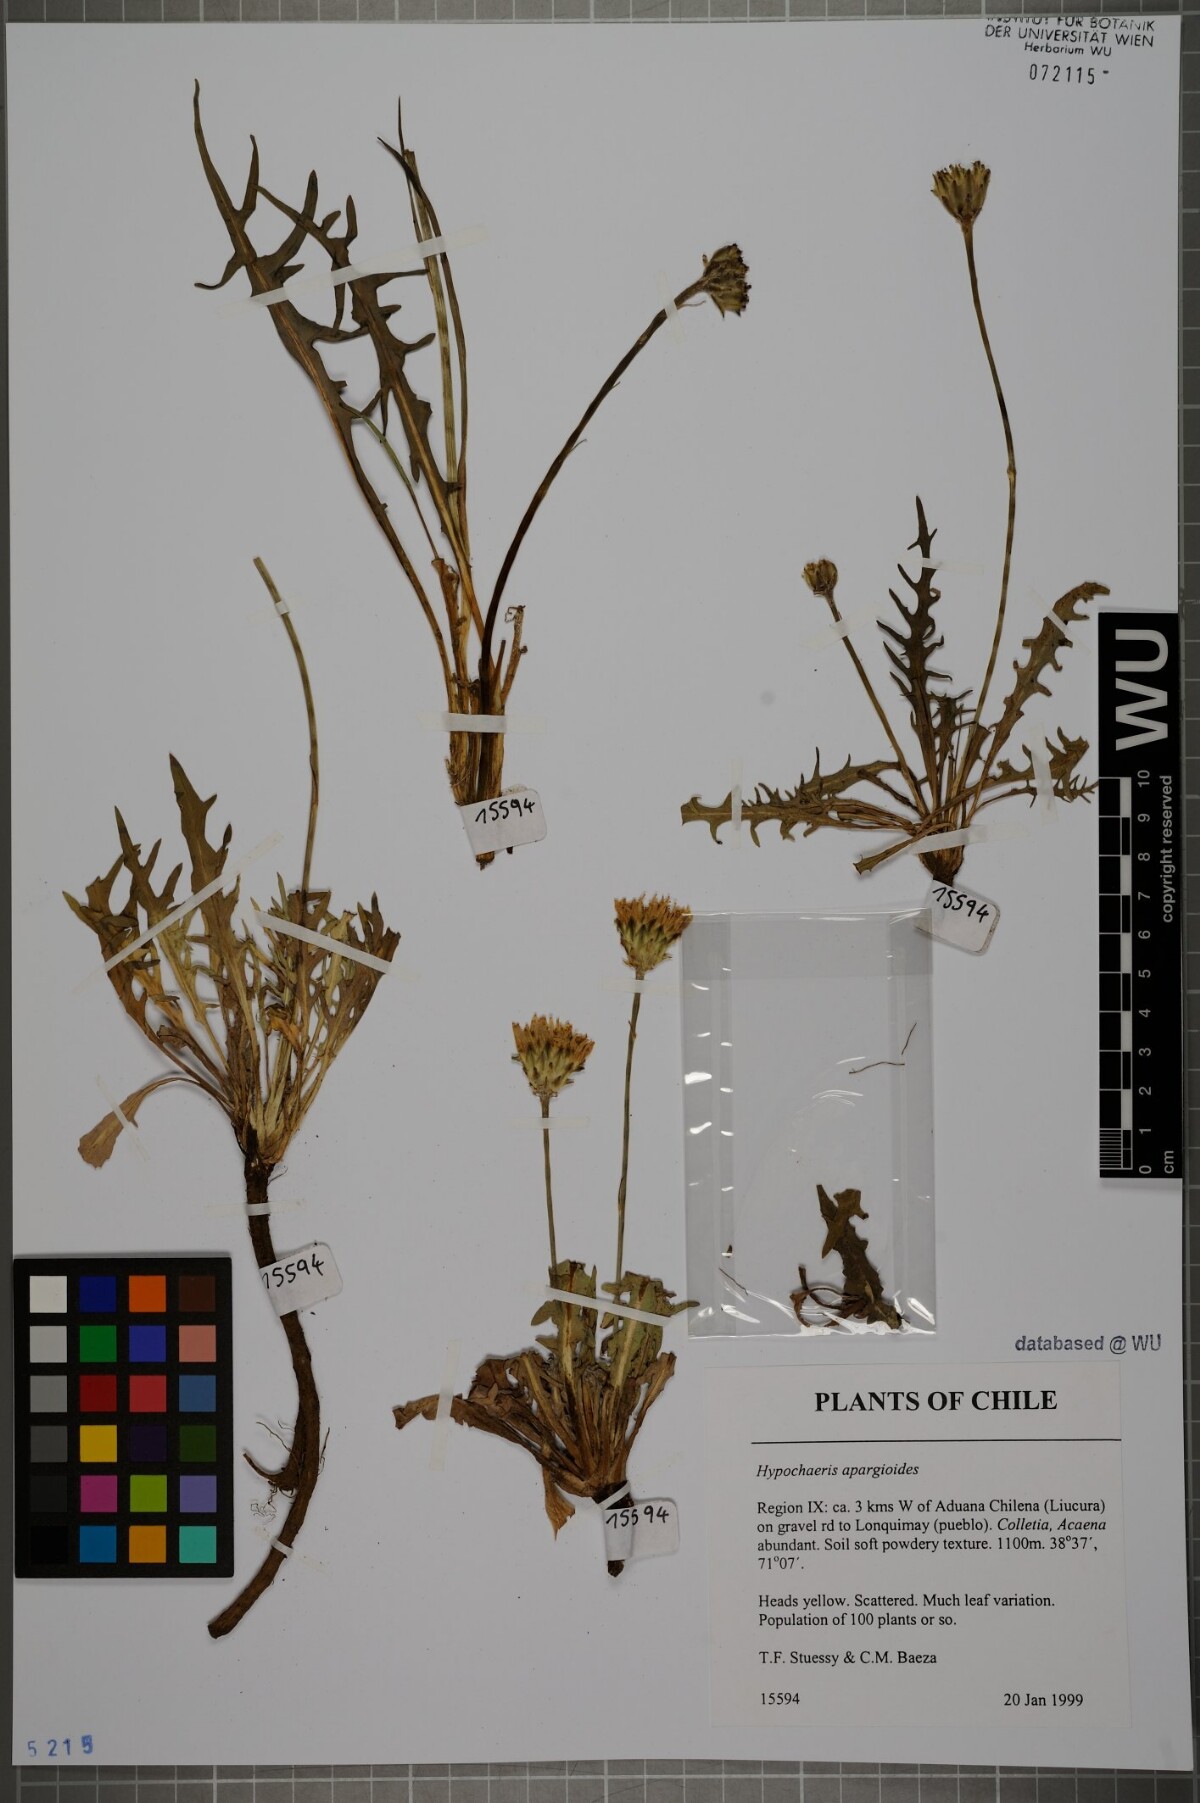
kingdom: Plantae
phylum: Tracheophyta
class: Magnoliopsida
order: Asterales
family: Asteraceae
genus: Hypochaeris
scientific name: Hypochaeris apargioides
